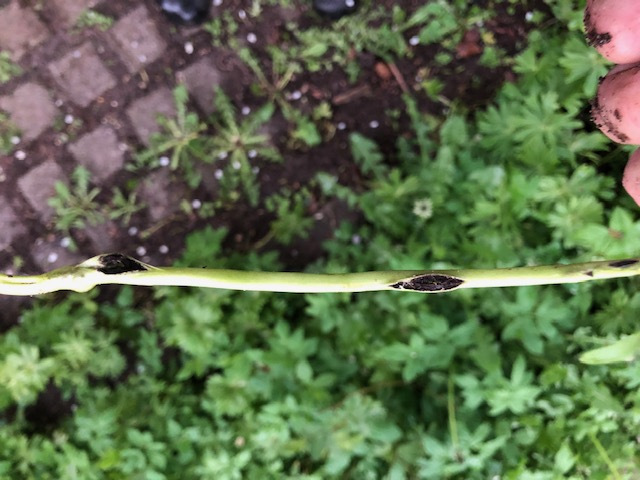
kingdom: Fungi
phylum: Basidiomycota
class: Ustilaginomycetes
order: Urocystidales
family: Urocystidaceae
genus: Urocystis
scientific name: Urocystis eranthidis
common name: erantis-brand
